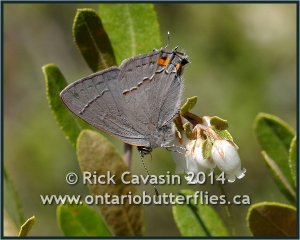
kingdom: Animalia
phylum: Arthropoda
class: Insecta
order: Lepidoptera
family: Lycaenidae
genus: Strymon
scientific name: Strymon melinus
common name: Gray Hairstreak
